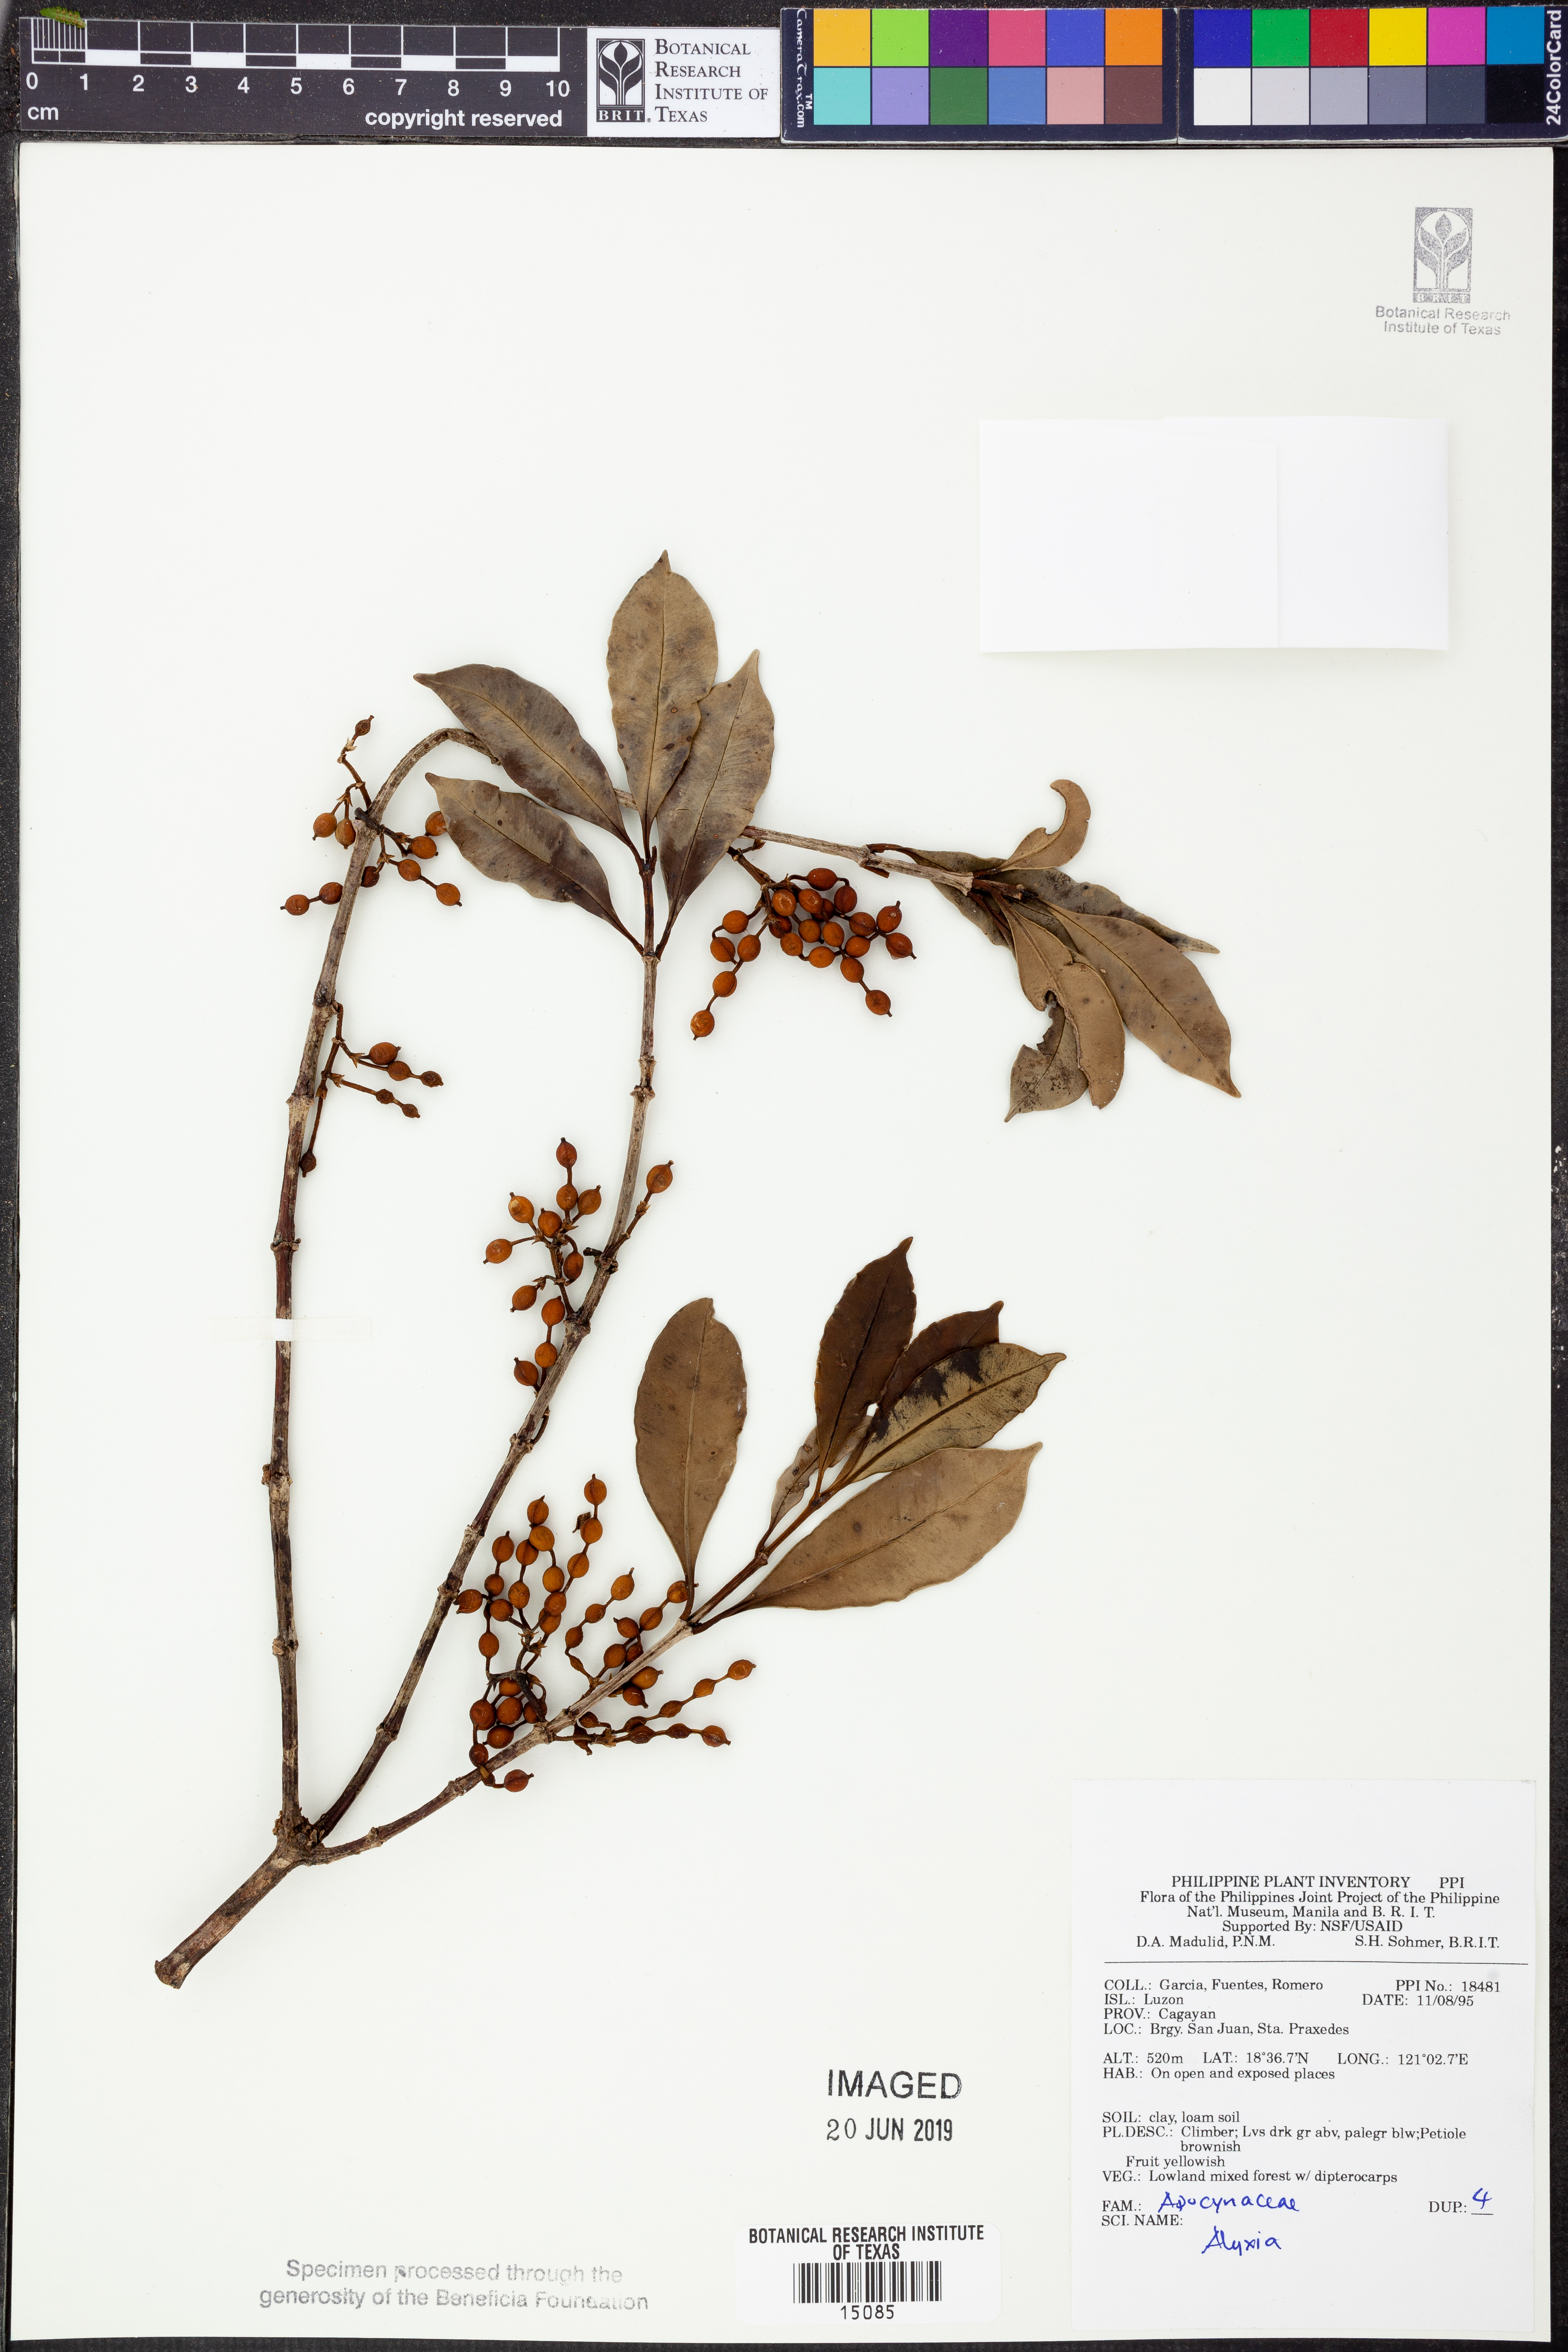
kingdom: Plantae
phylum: Tracheophyta
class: Magnoliopsida
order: Gentianales
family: Apocynaceae
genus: Alyxia
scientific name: Alyxia
